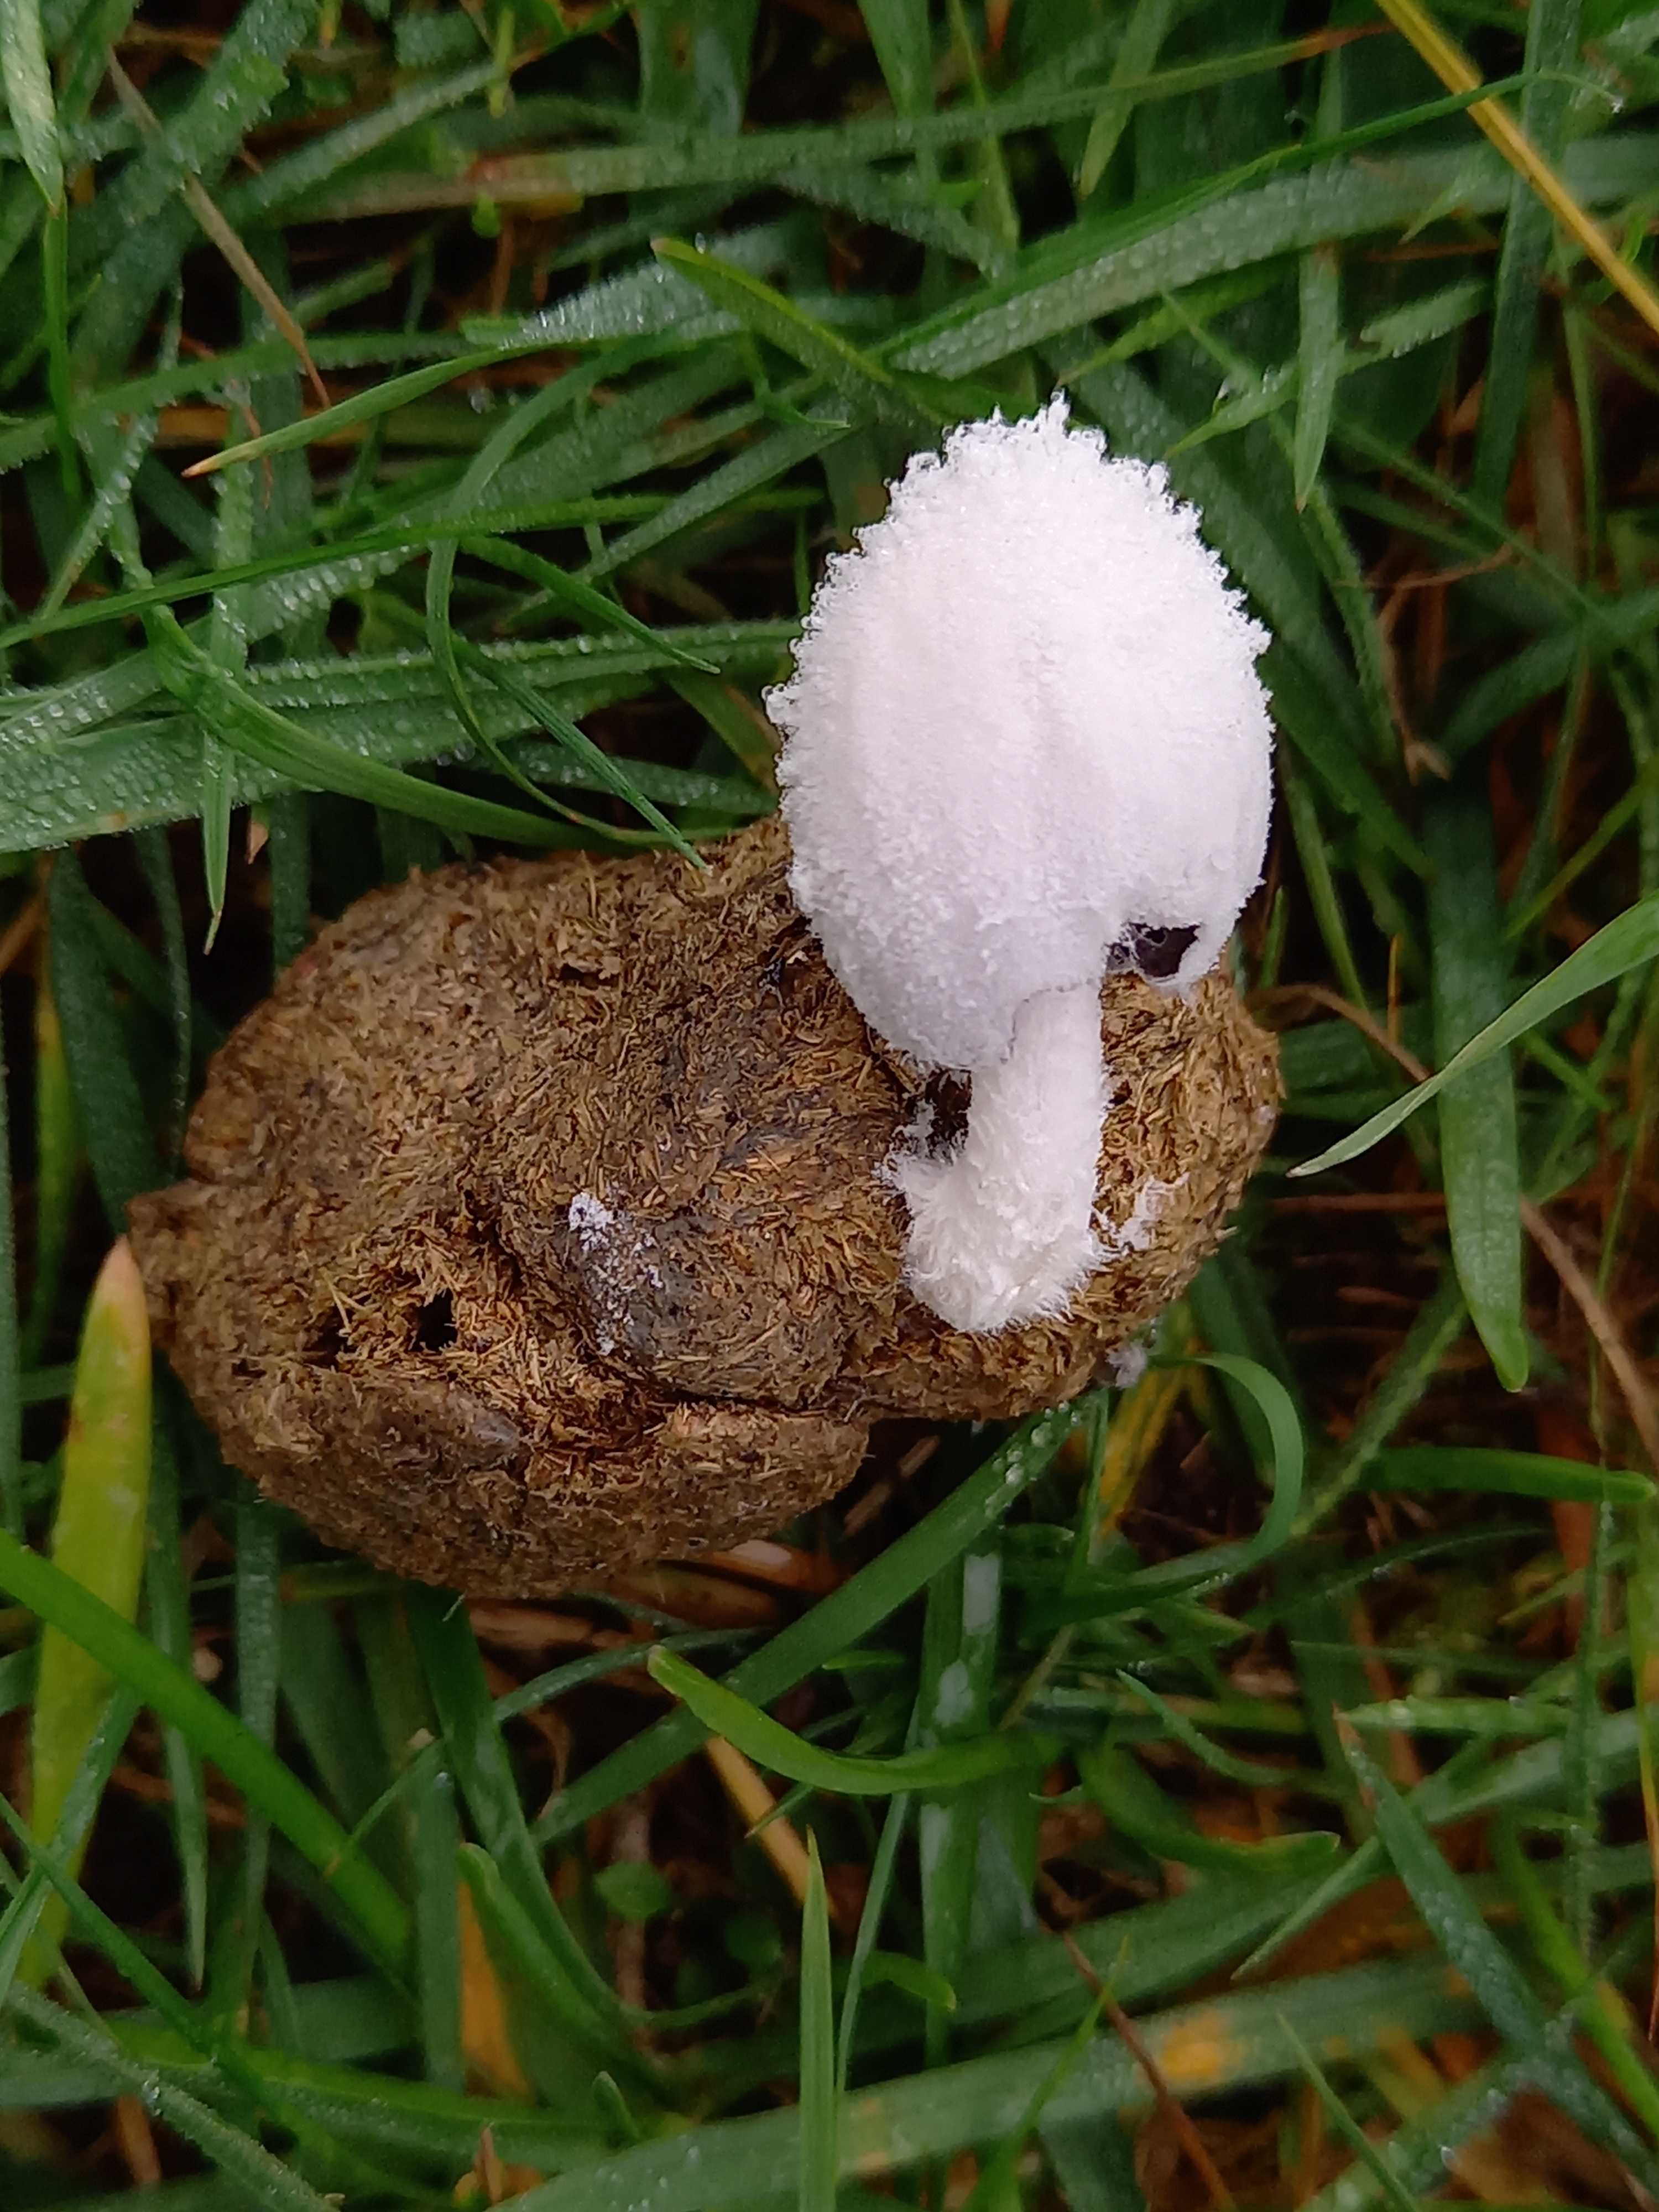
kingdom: Fungi
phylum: Basidiomycota
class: Agaricomycetes
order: Agaricales
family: Psathyrellaceae
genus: Coprinopsis
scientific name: Coprinopsis nivea
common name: snehvid blækhat
